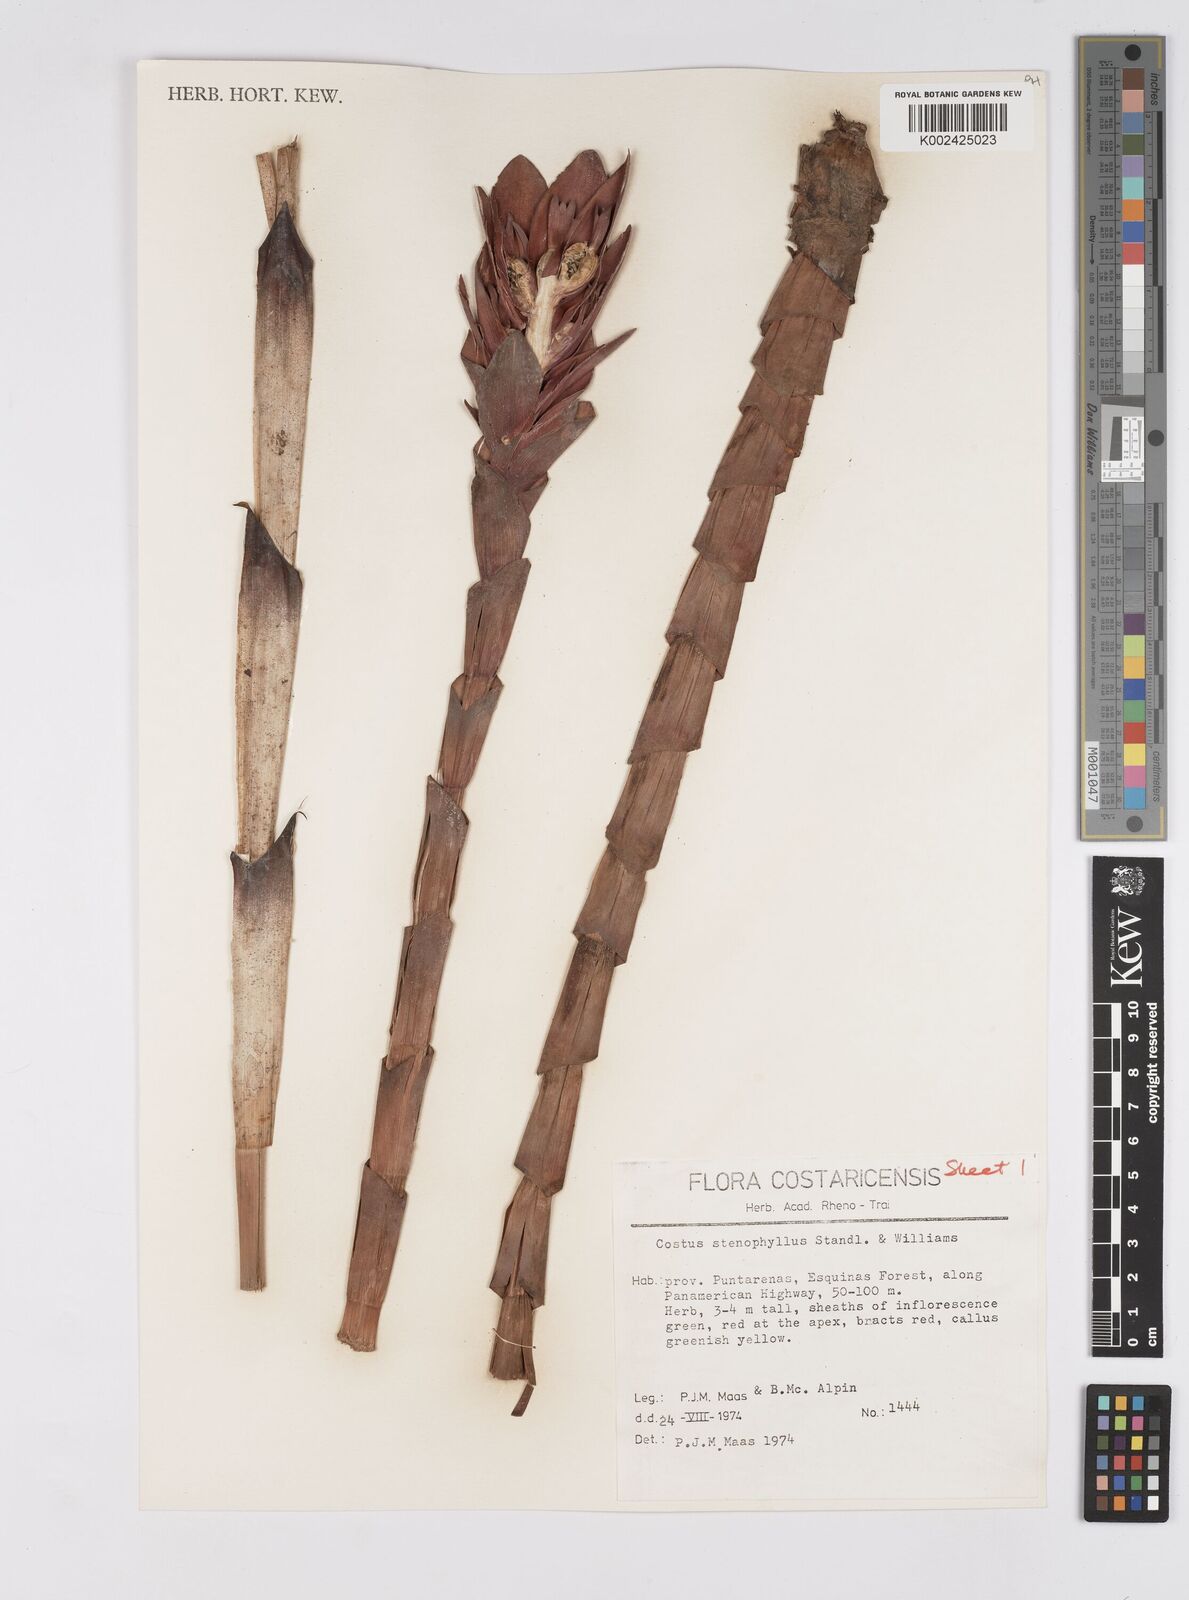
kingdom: Plantae
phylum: Tracheophyta
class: Liliopsida
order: Zingiberales
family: Costaceae
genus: Costus
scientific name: Costus stenophyllus
